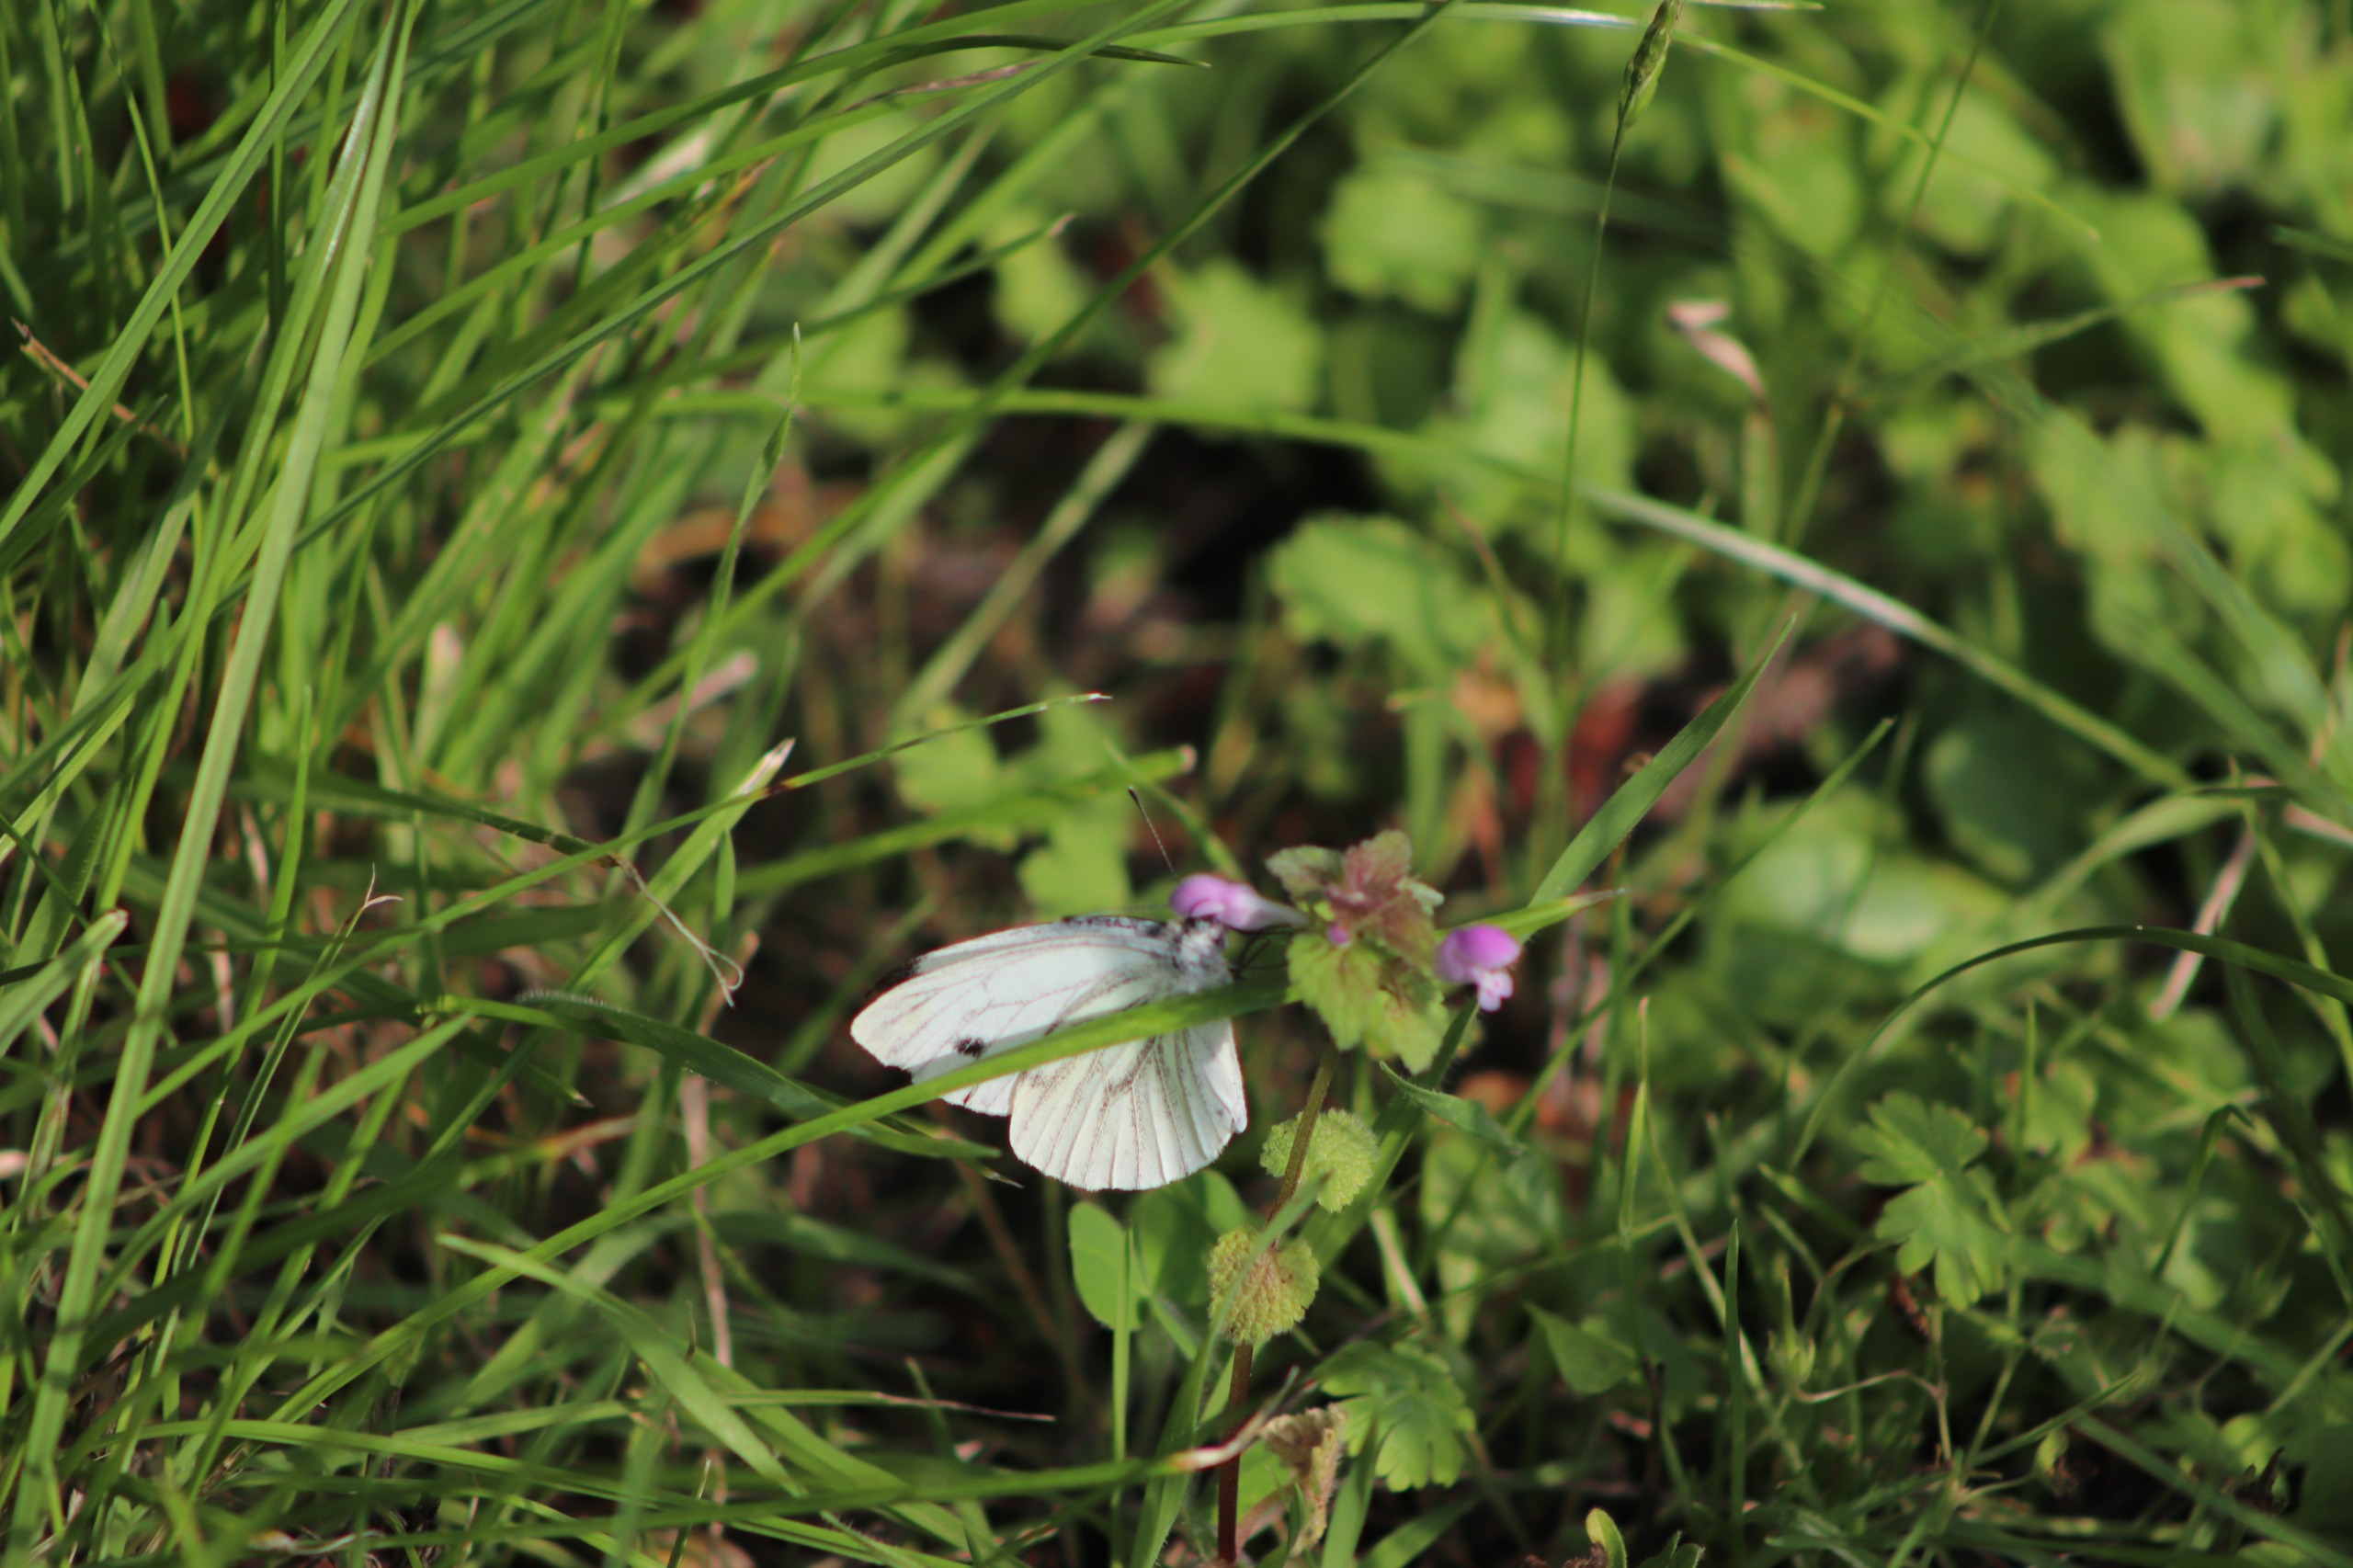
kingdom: Animalia
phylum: Arthropoda
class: Insecta
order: Lepidoptera
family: Pieridae
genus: Pieris
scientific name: Pieris napi
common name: Grønåret kålsommerfugl
